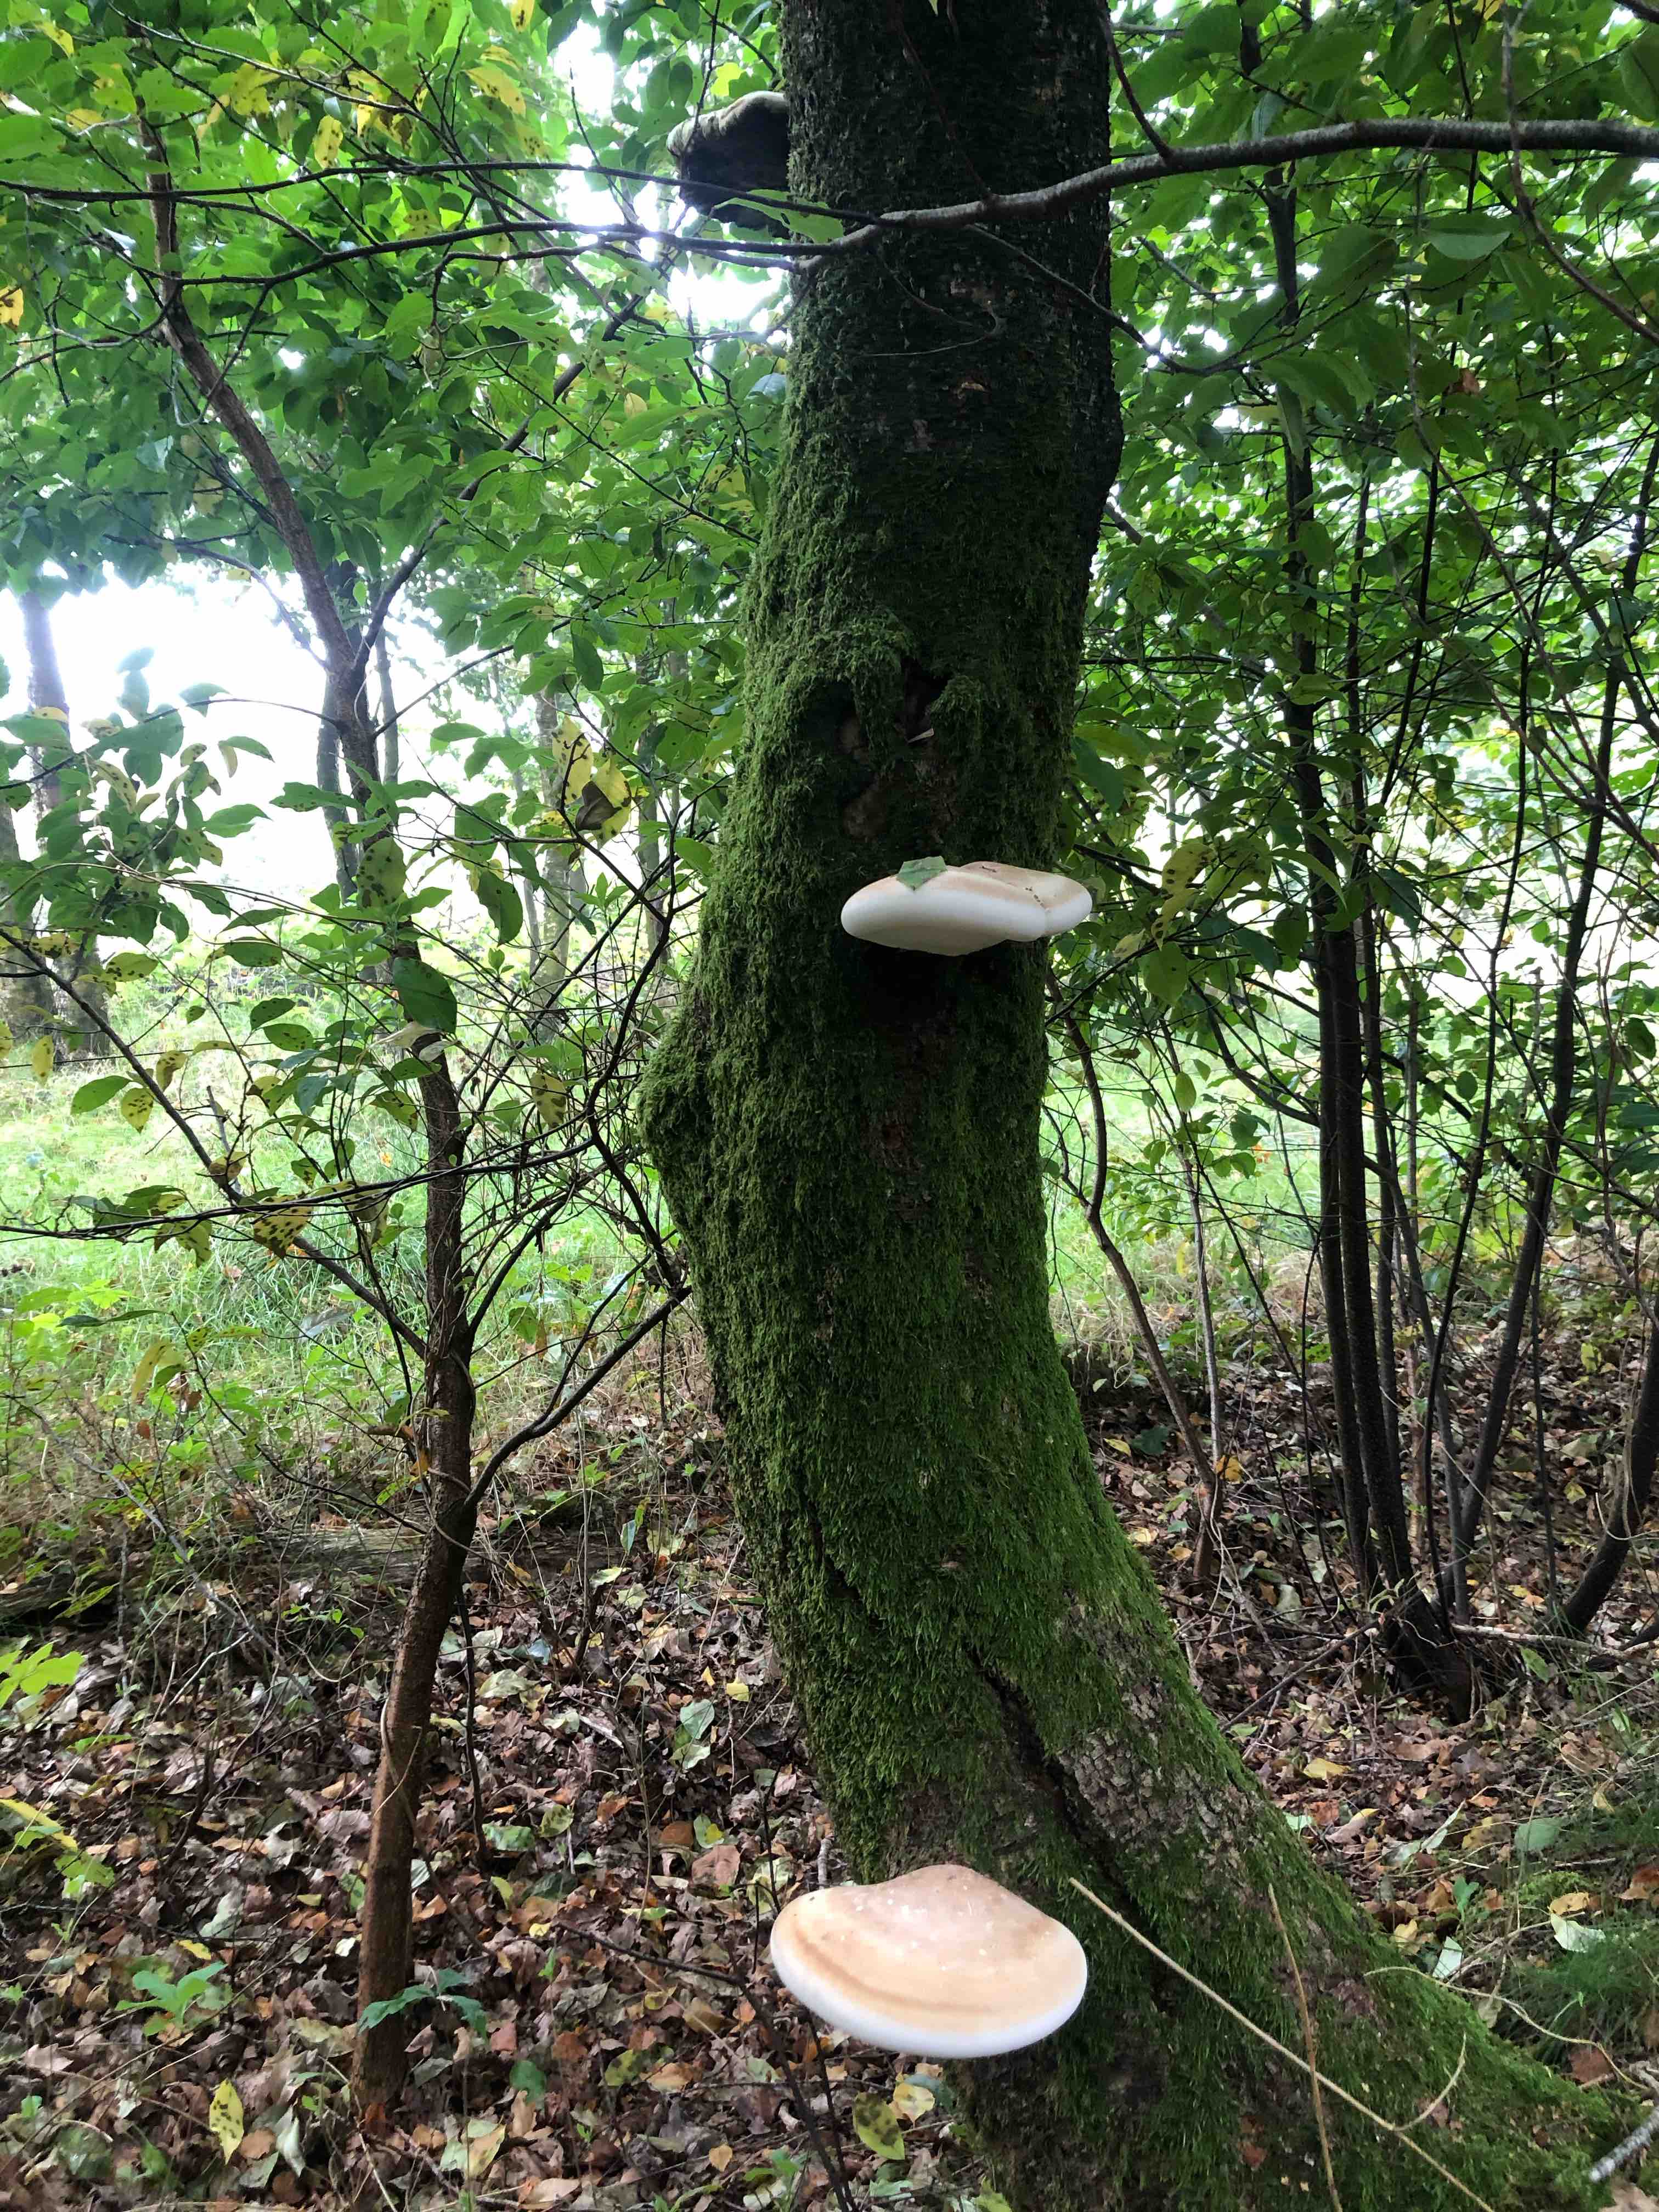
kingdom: Fungi
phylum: Basidiomycota
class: Agaricomycetes
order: Polyporales
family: Fomitopsidaceae
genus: Fomitopsis
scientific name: Fomitopsis betulina
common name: birkeporesvamp
